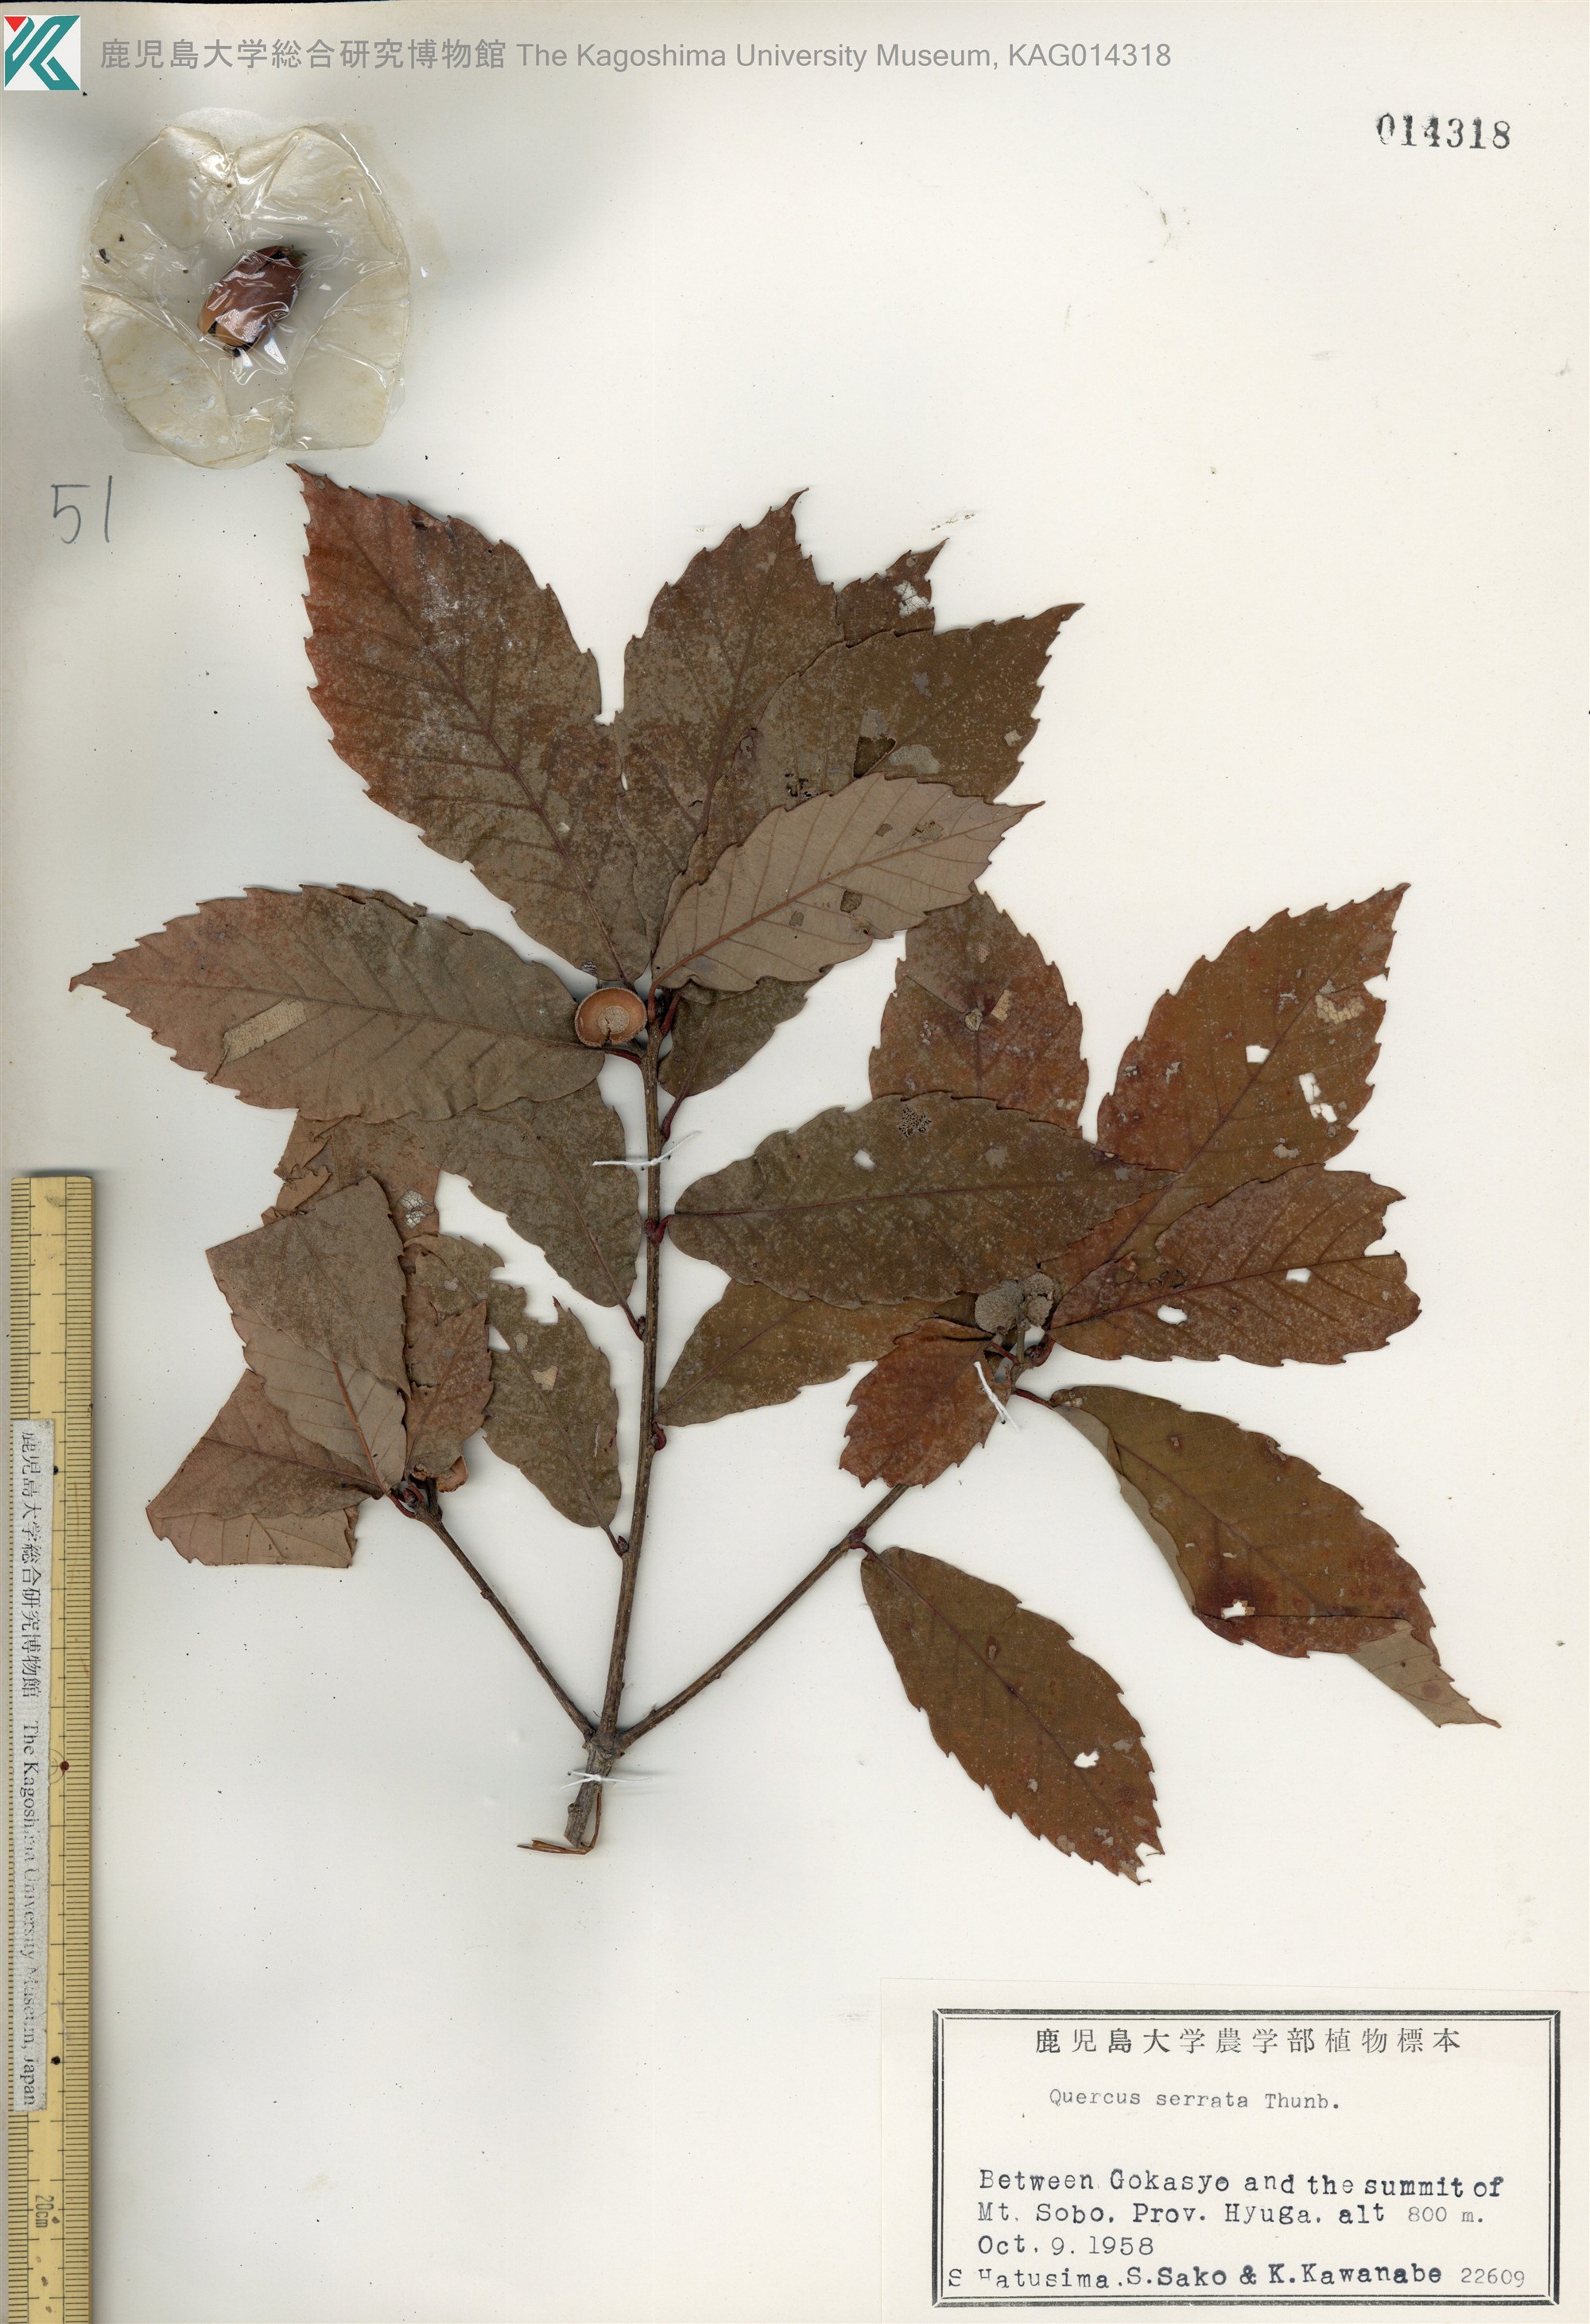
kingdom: Plantae
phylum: Tracheophyta
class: Magnoliopsida
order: Fagales
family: Fagaceae
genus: Quercus
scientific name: Quercus serrata
